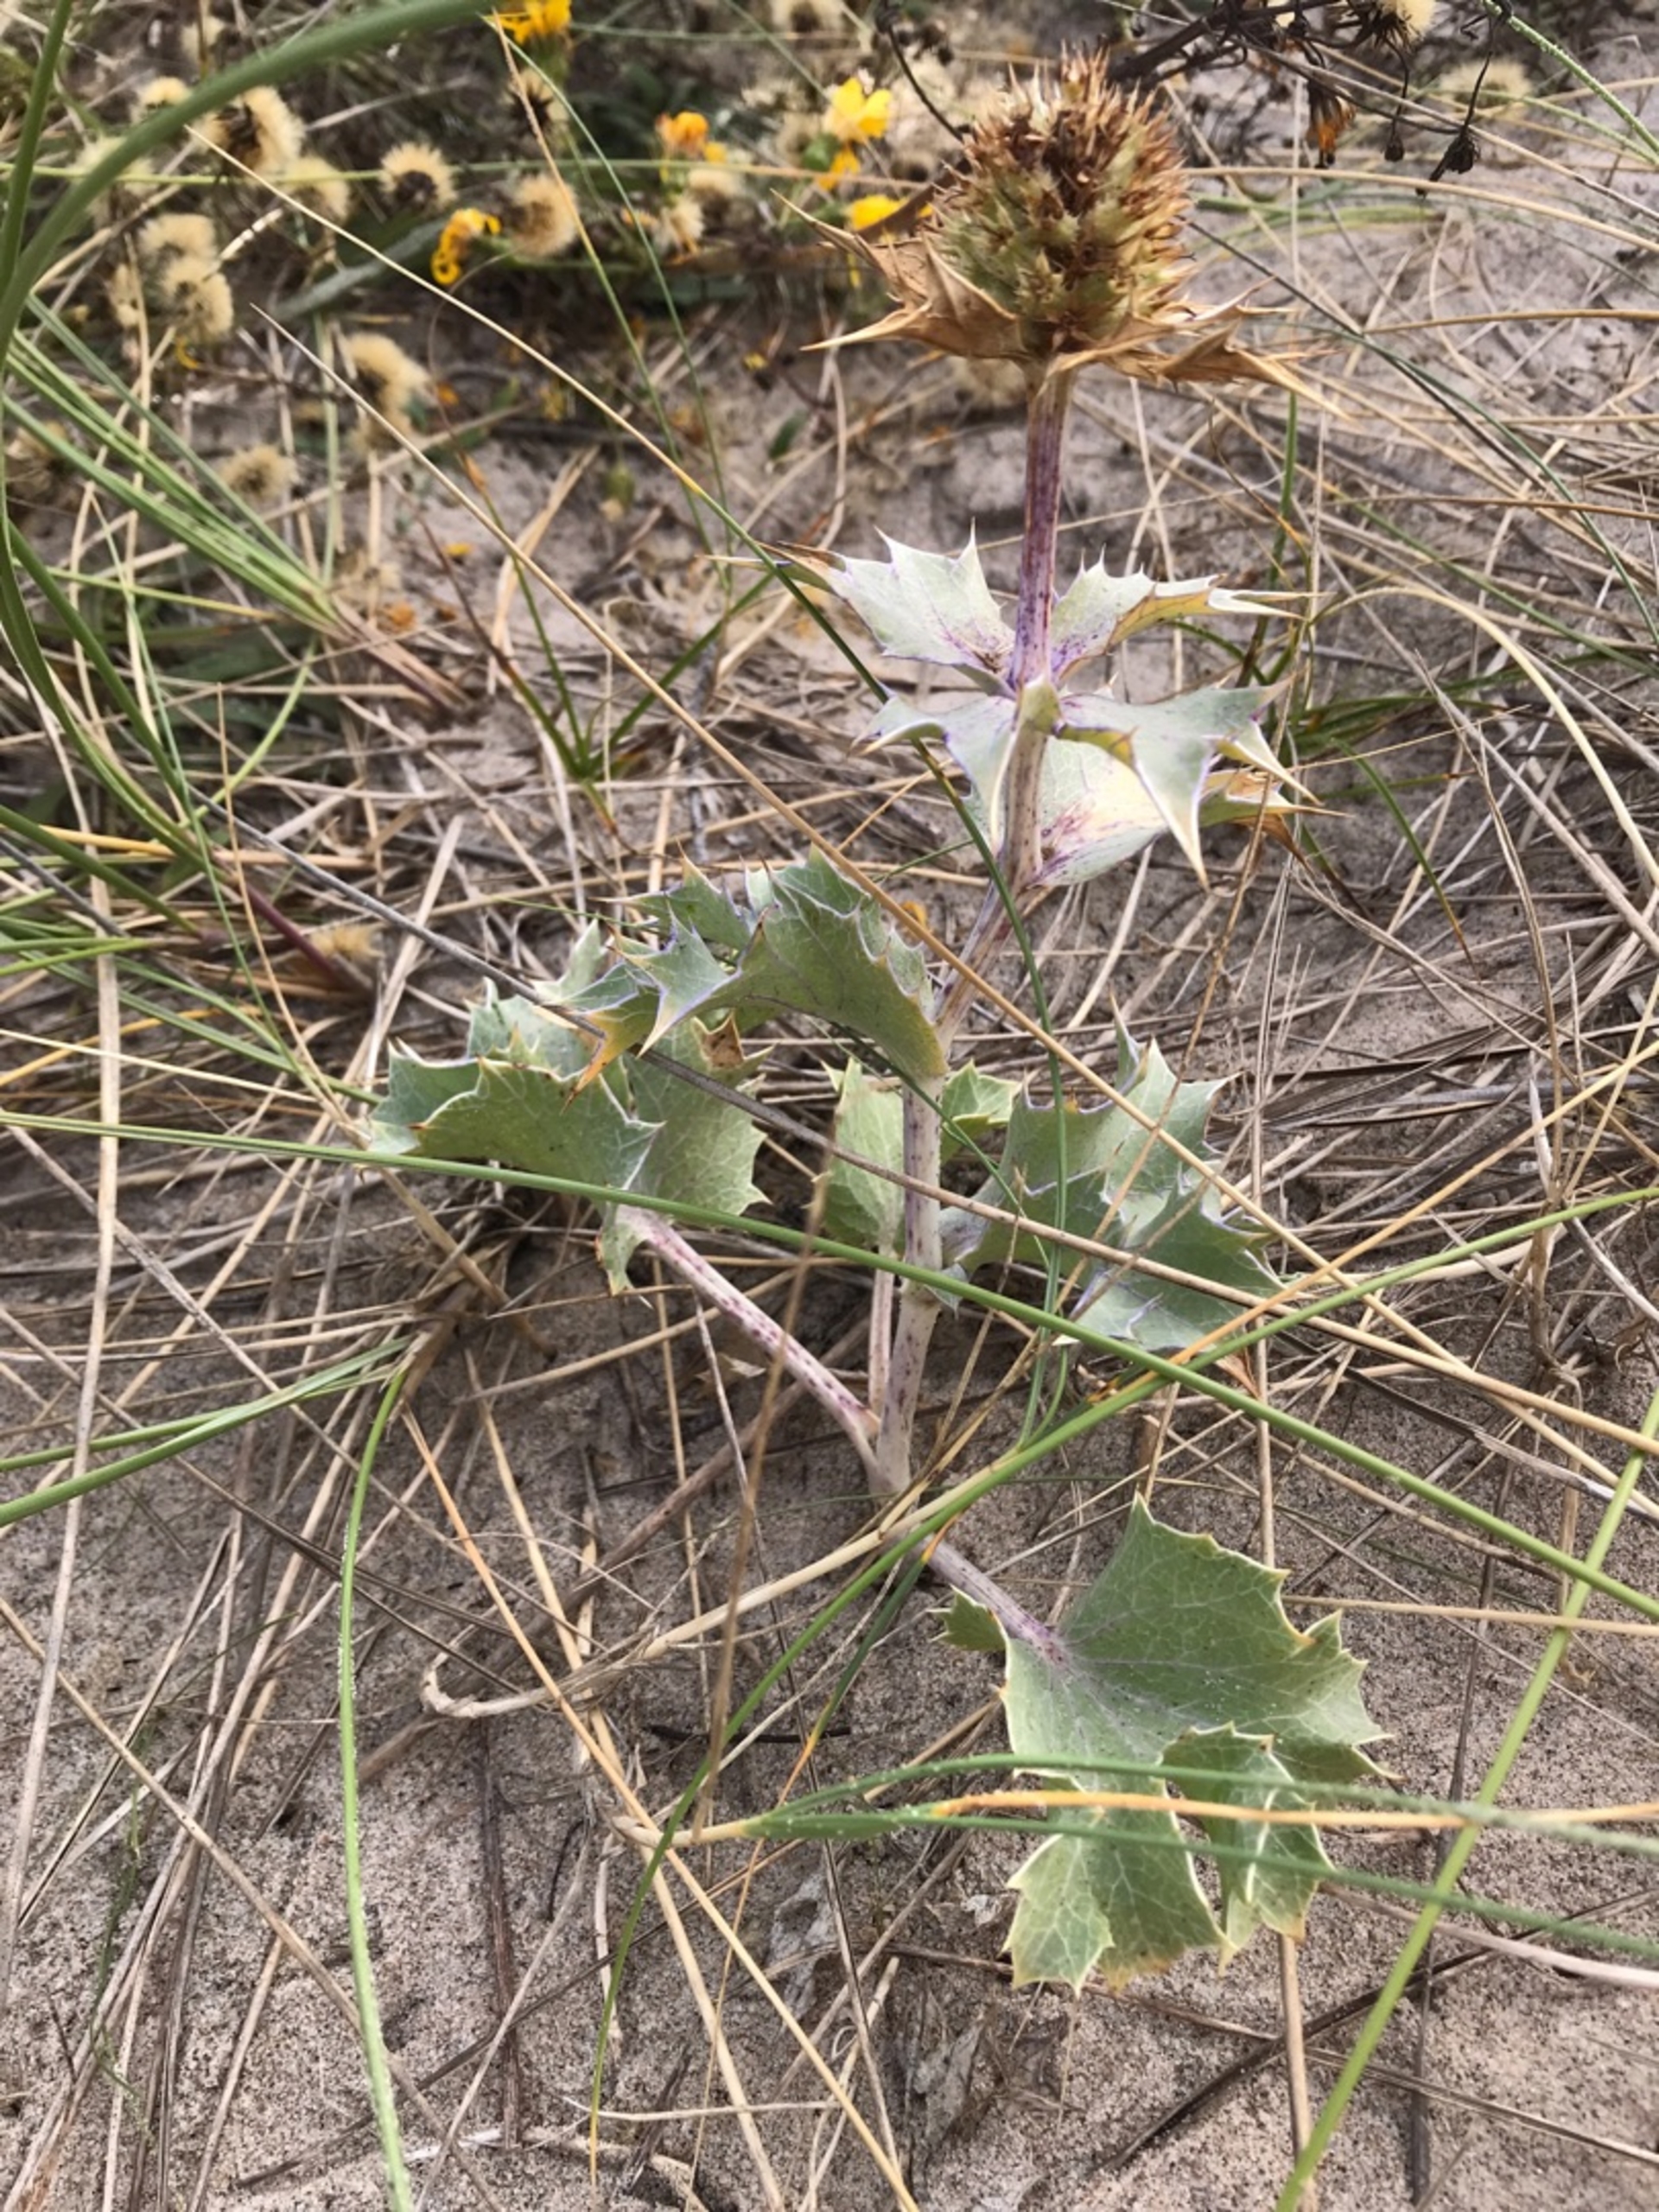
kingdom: Plantae
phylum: Tracheophyta
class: Magnoliopsida
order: Apiales
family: Apiaceae
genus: Eryngium
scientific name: Eryngium maritimum
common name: Strand-mandstro
